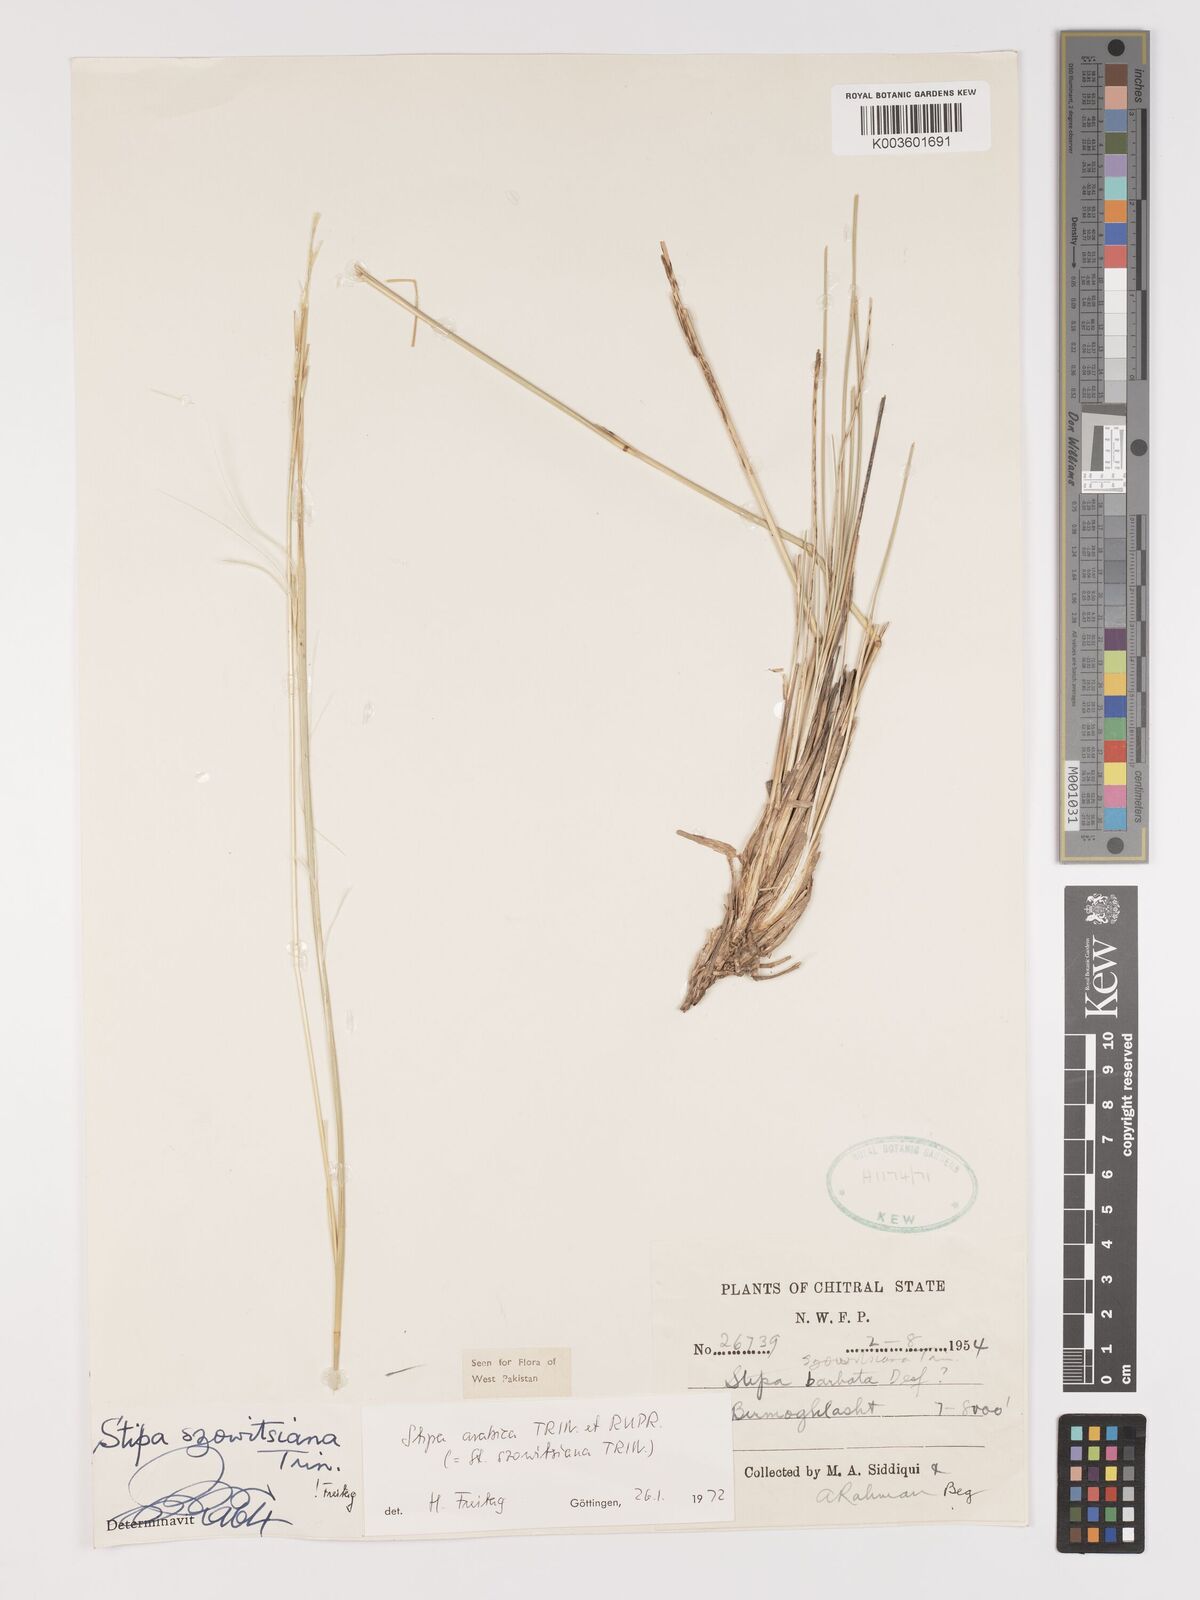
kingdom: Plantae
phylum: Tracheophyta
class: Liliopsida
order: Poales
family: Poaceae
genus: Stipa
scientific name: Stipa arabica
